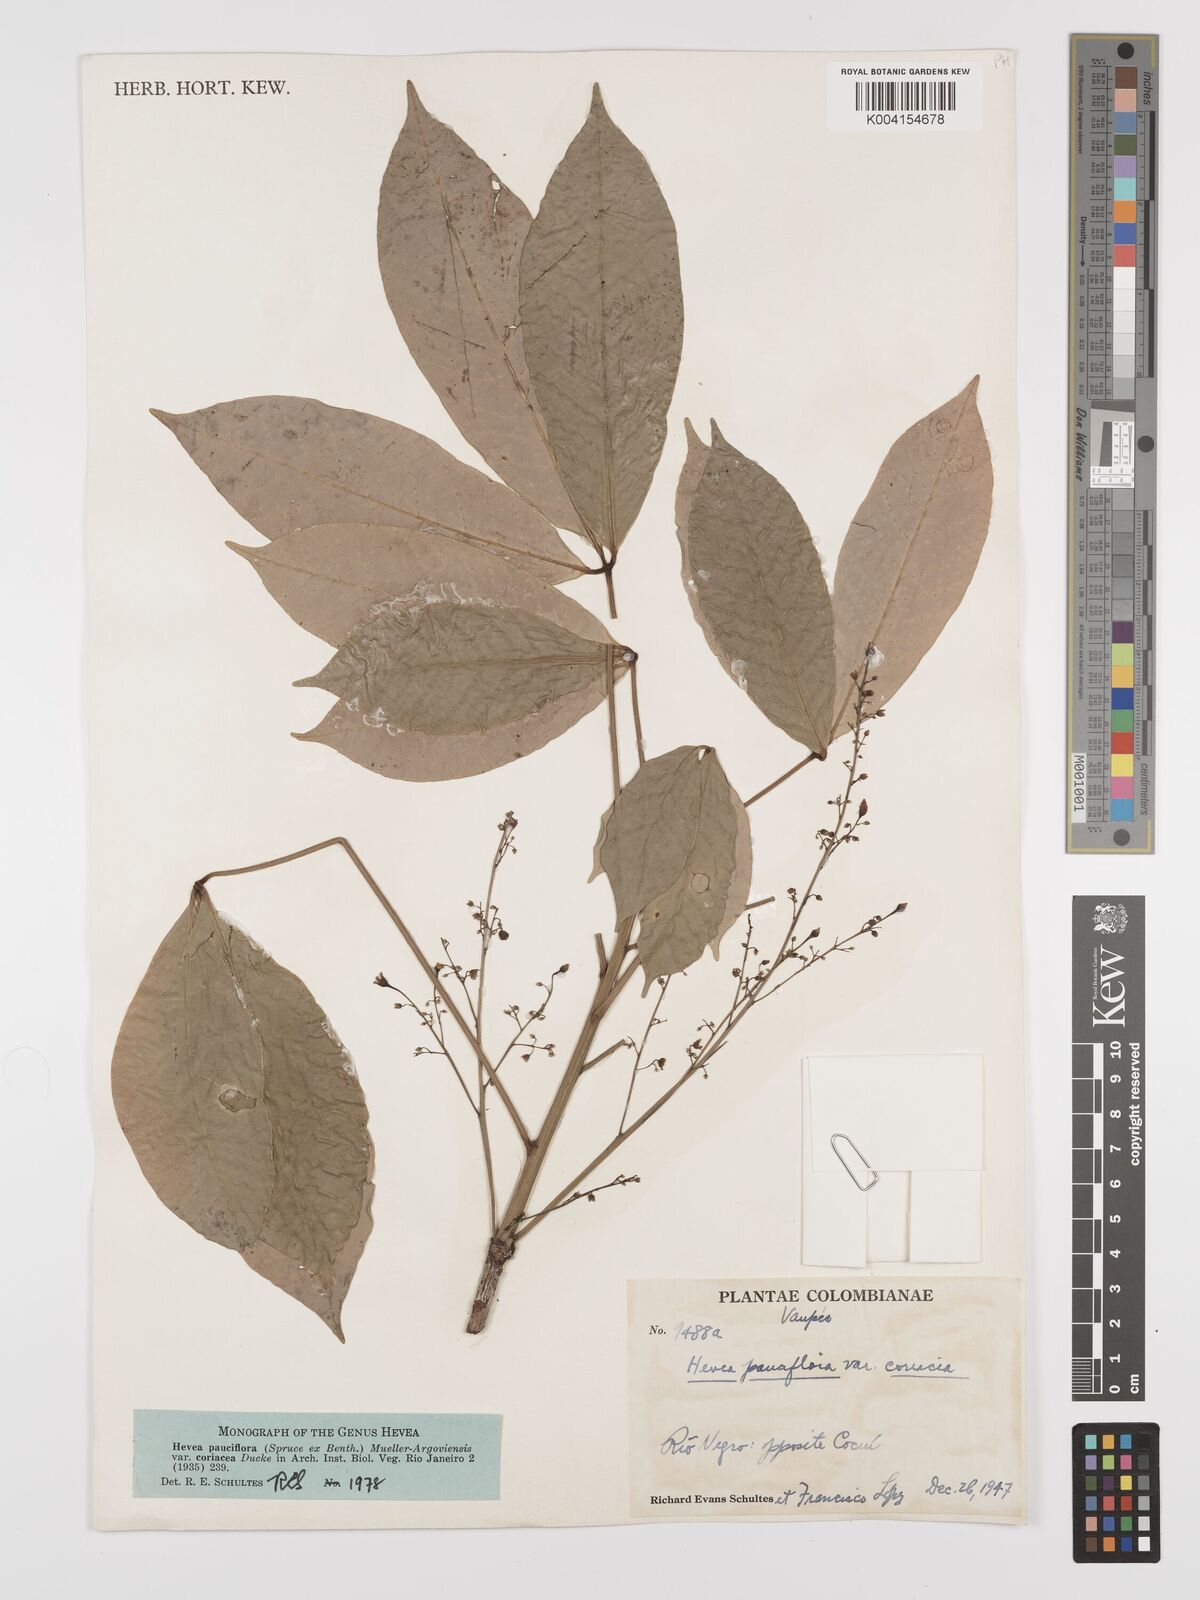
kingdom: Plantae
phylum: Tracheophyta
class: Magnoliopsida
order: Malpighiales
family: Euphorbiaceae
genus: Hevea
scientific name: Hevea pauciflora
